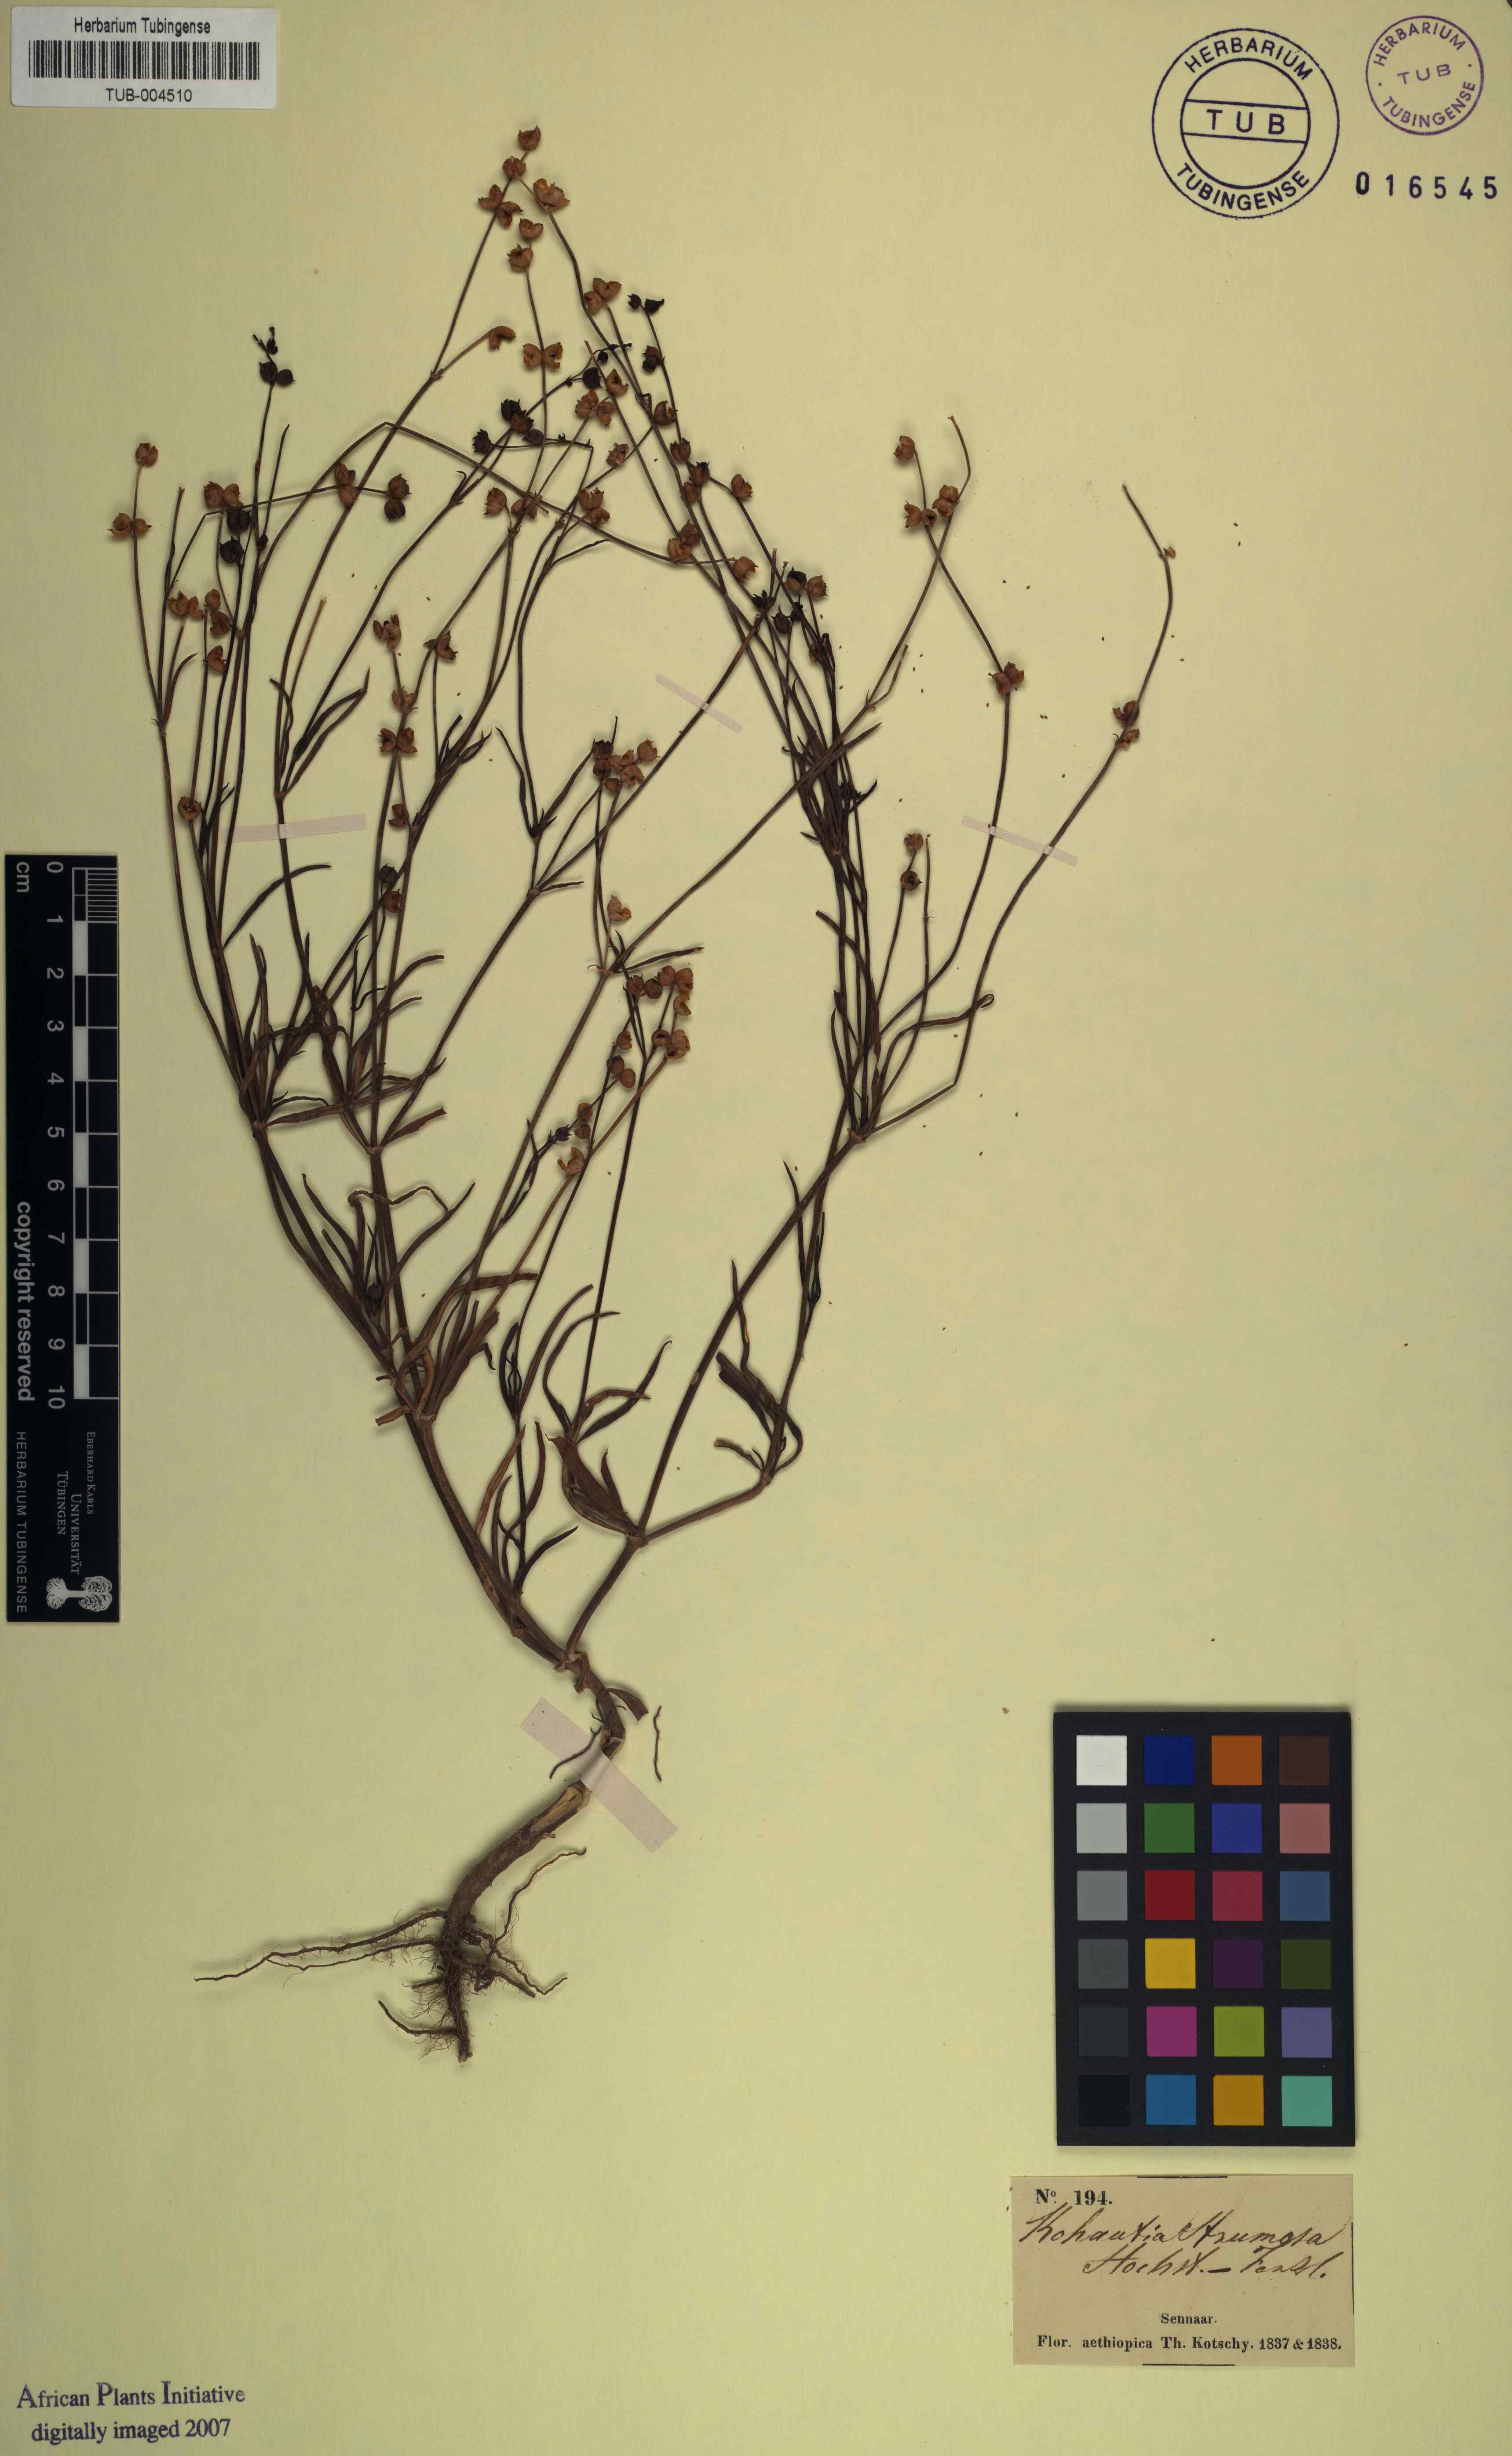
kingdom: Plantae
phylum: Tracheophyta
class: Magnoliopsida
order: Gentianales
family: Rubiaceae
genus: Kohautia
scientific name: Kohautia aspera
